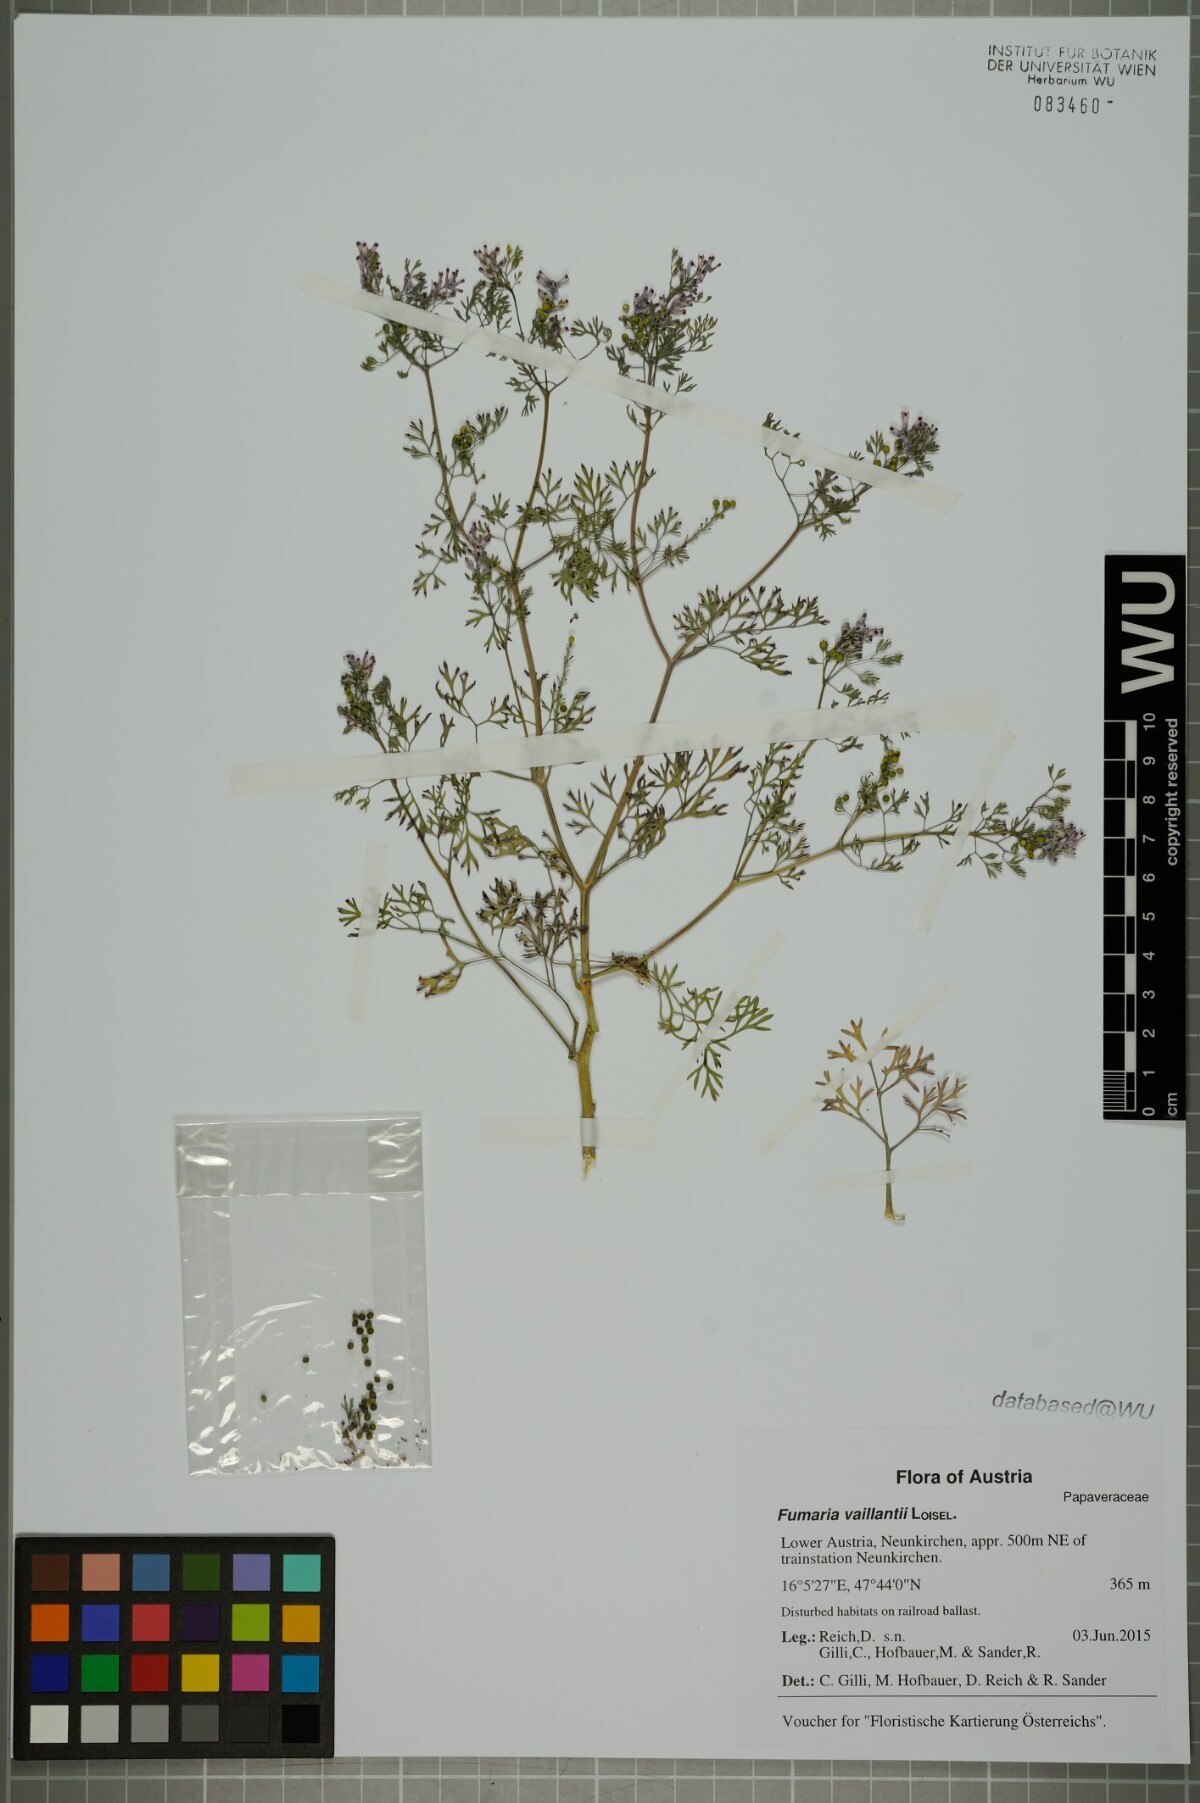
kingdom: Plantae
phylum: Tracheophyta
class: Magnoliopsida
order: Ranunculales
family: Papaveraceae
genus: Fumaria
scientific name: Fumaria vaillantii
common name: Few-flowered fumitory
